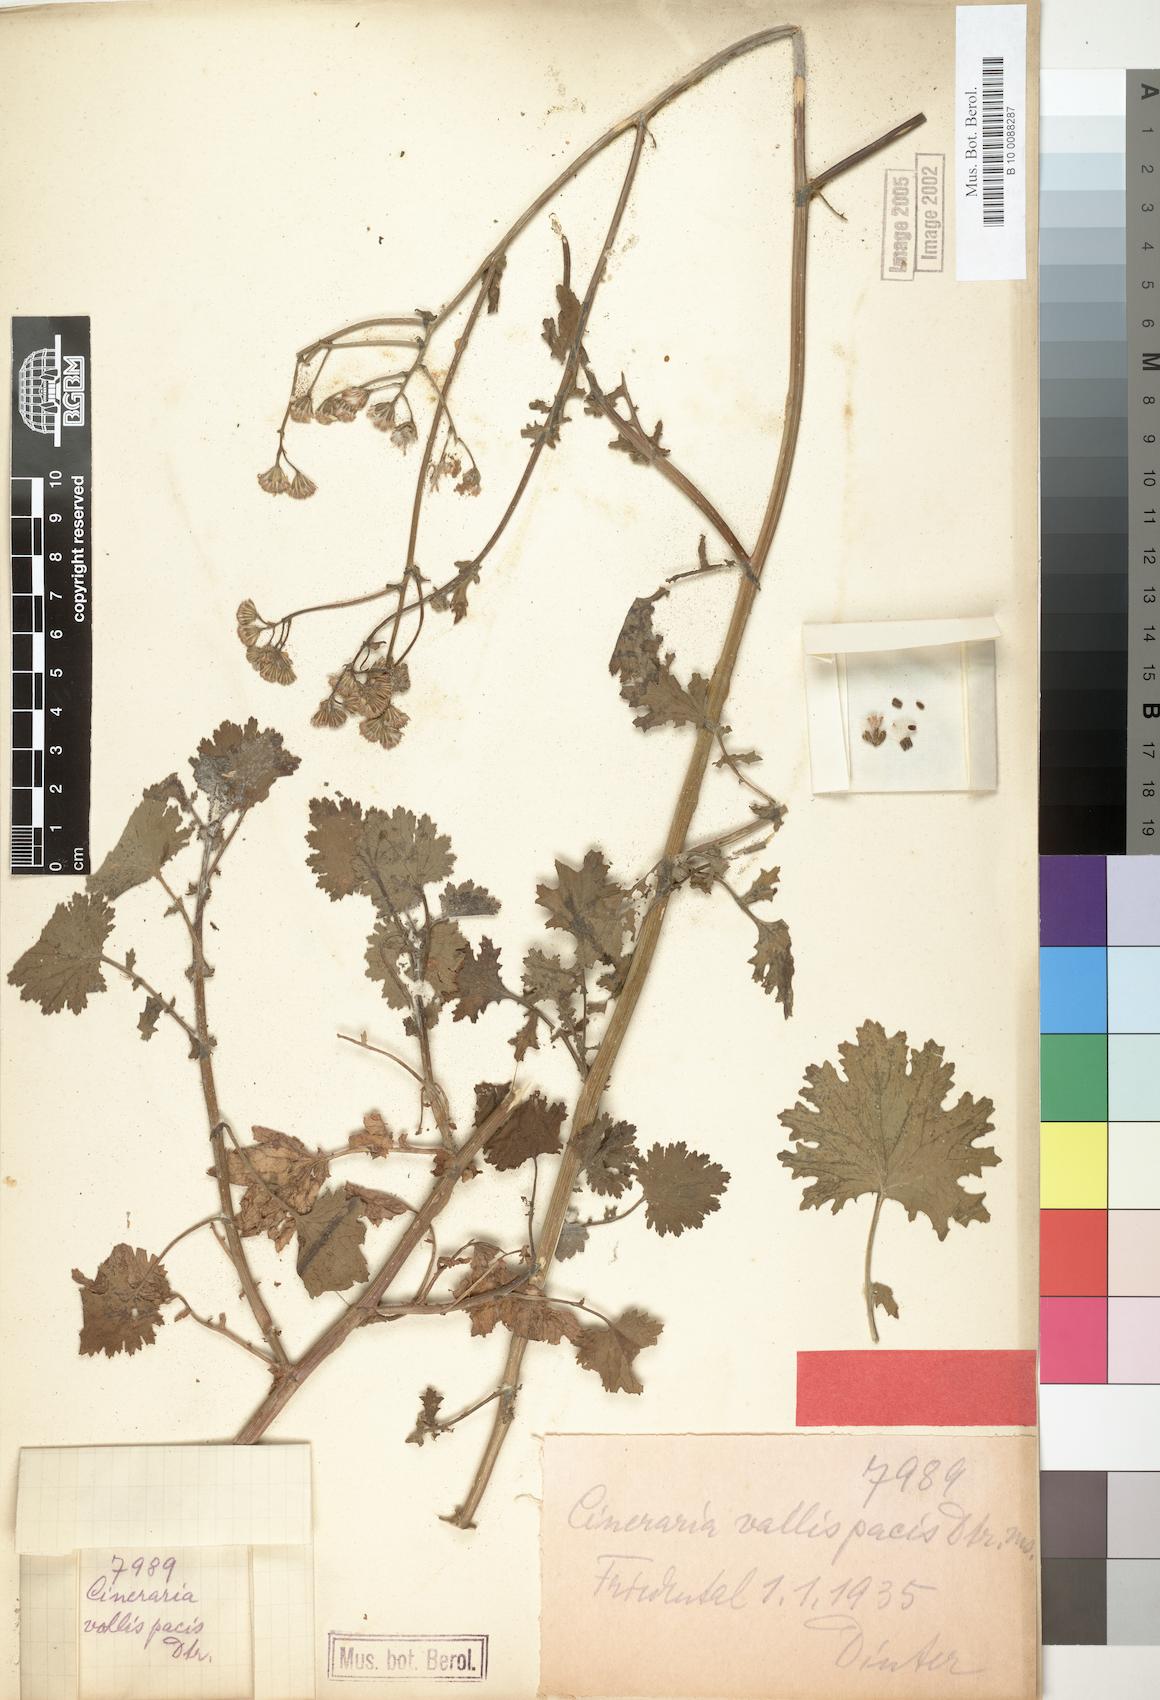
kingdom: Plantae
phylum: Tracheophyta
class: Magnoliopsida
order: Asterales
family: Asteraceae
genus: Cineraria
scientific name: Cineraria vallis-pacis
